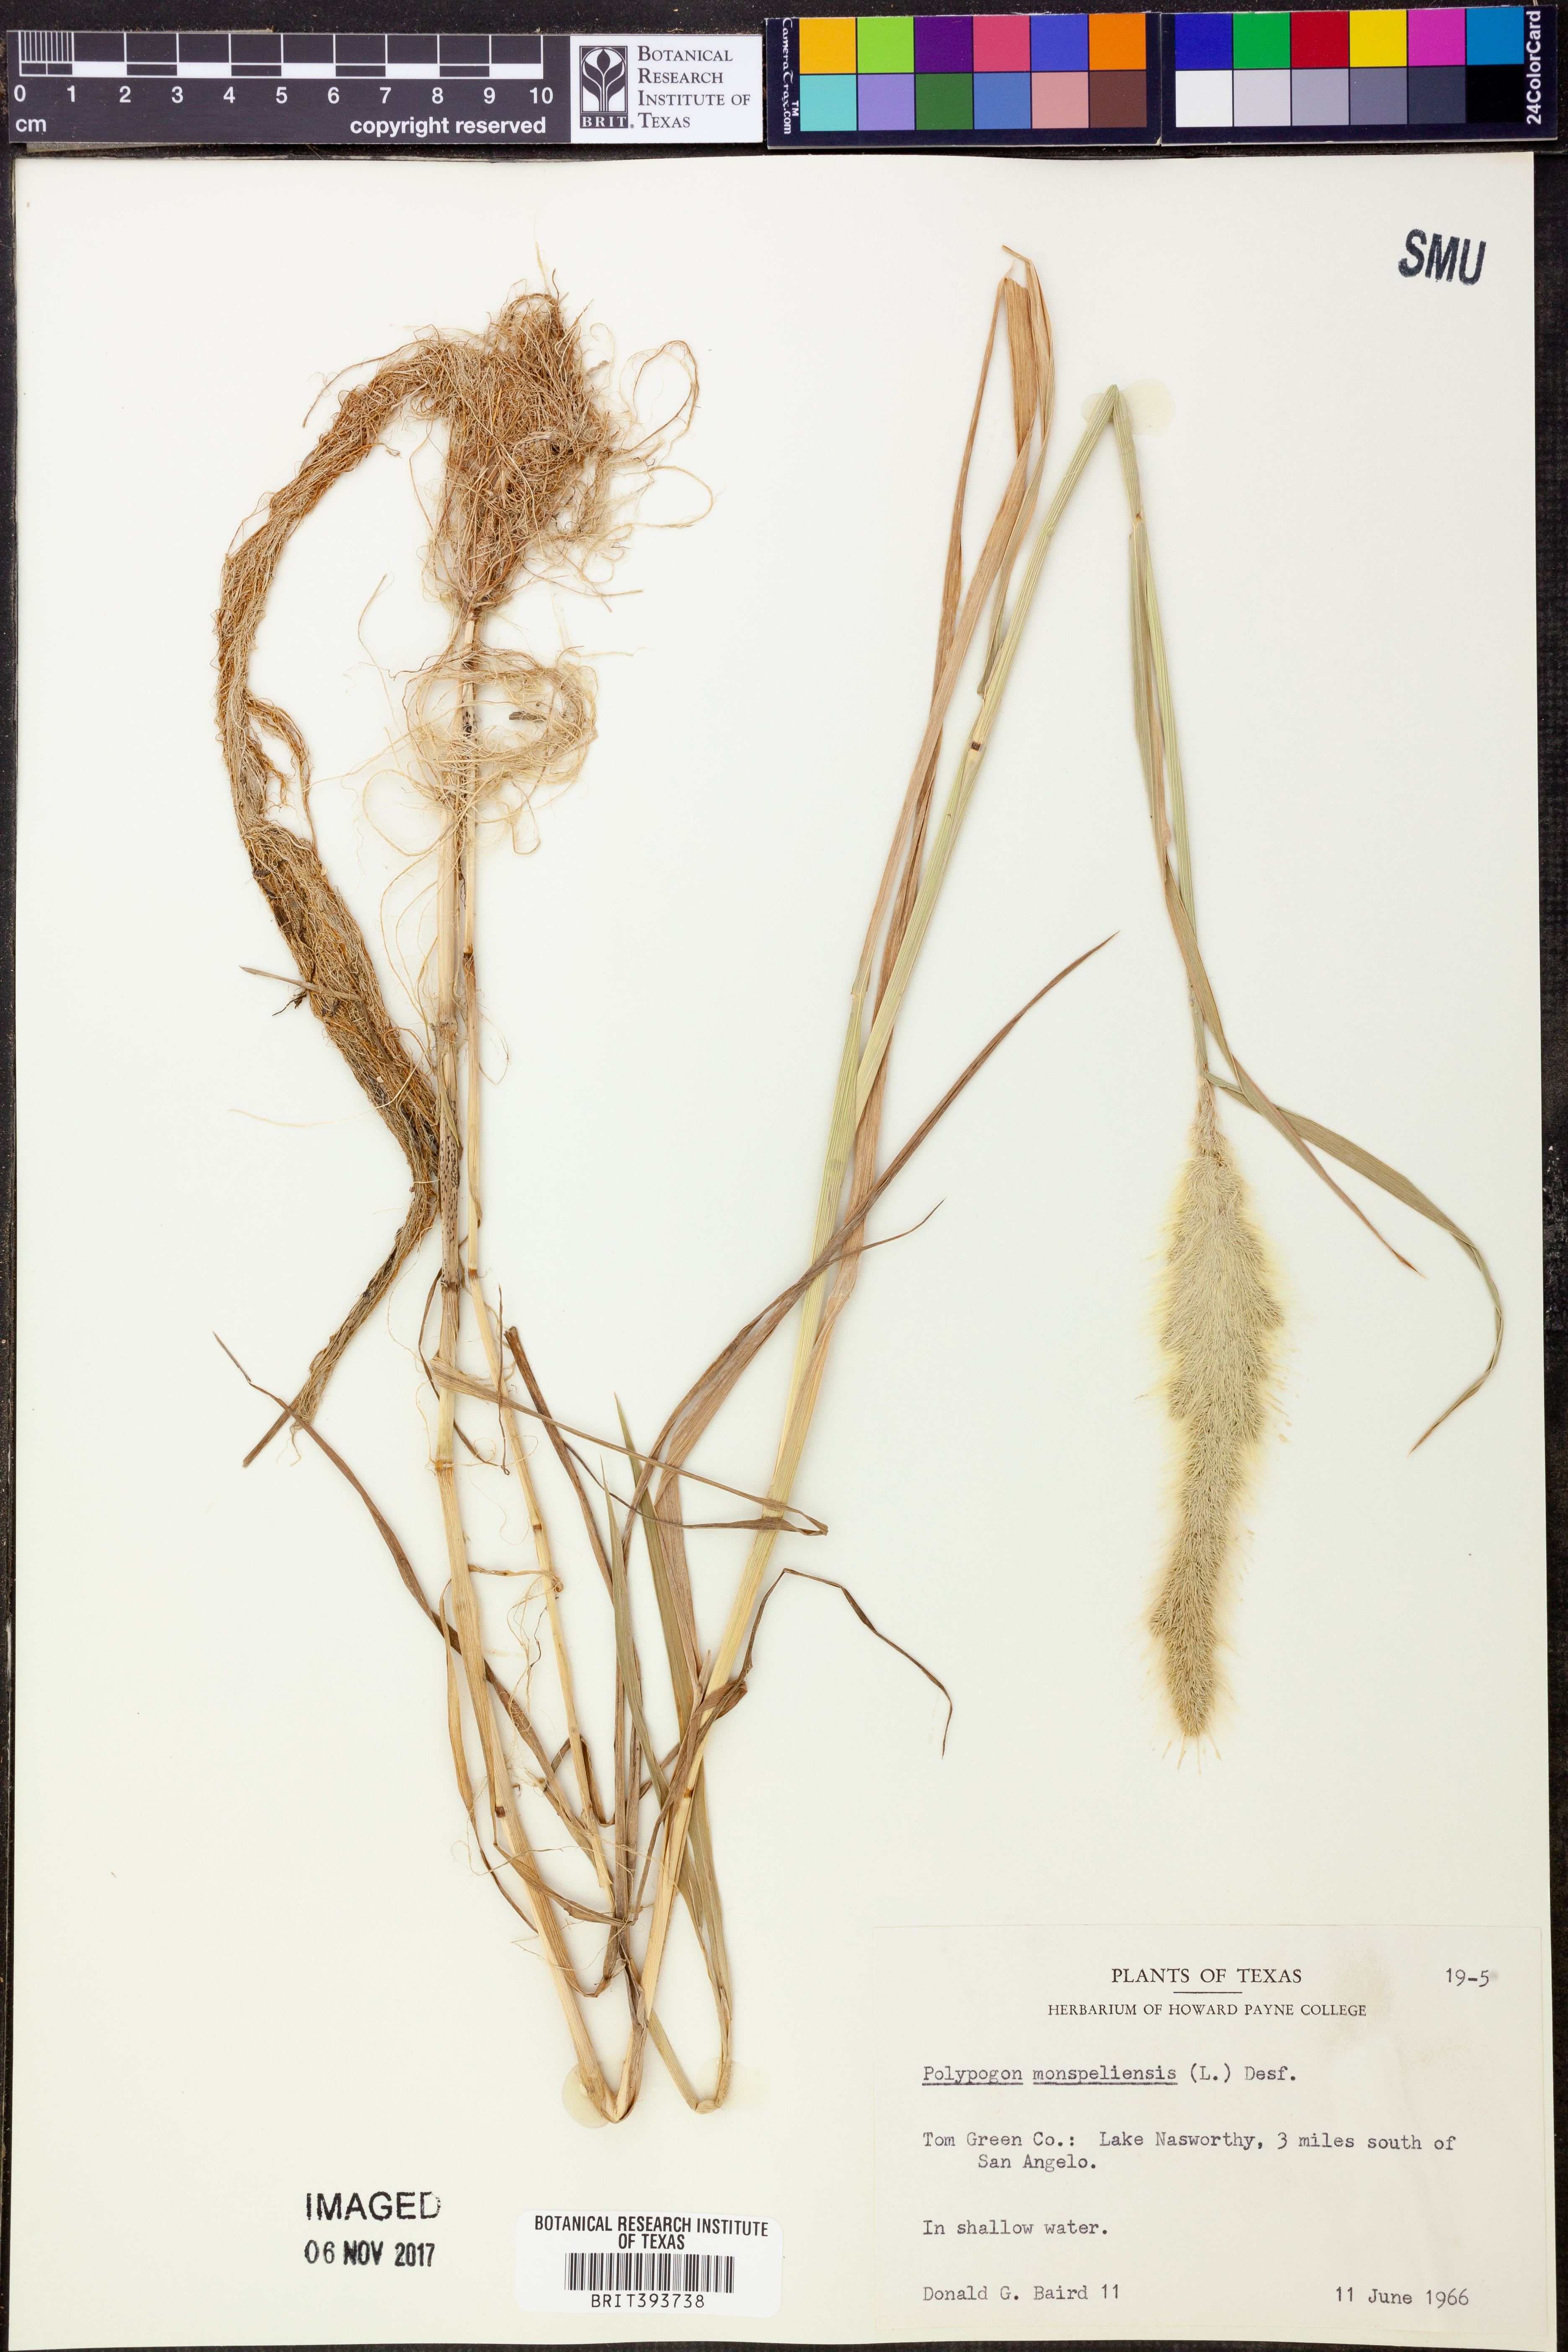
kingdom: Plantae
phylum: Tracheophyta
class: Liliopsida
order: Poales
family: Poaceae
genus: Polypogon
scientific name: Polypogon monspeliensis
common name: Annual rabbitsfoot grass
